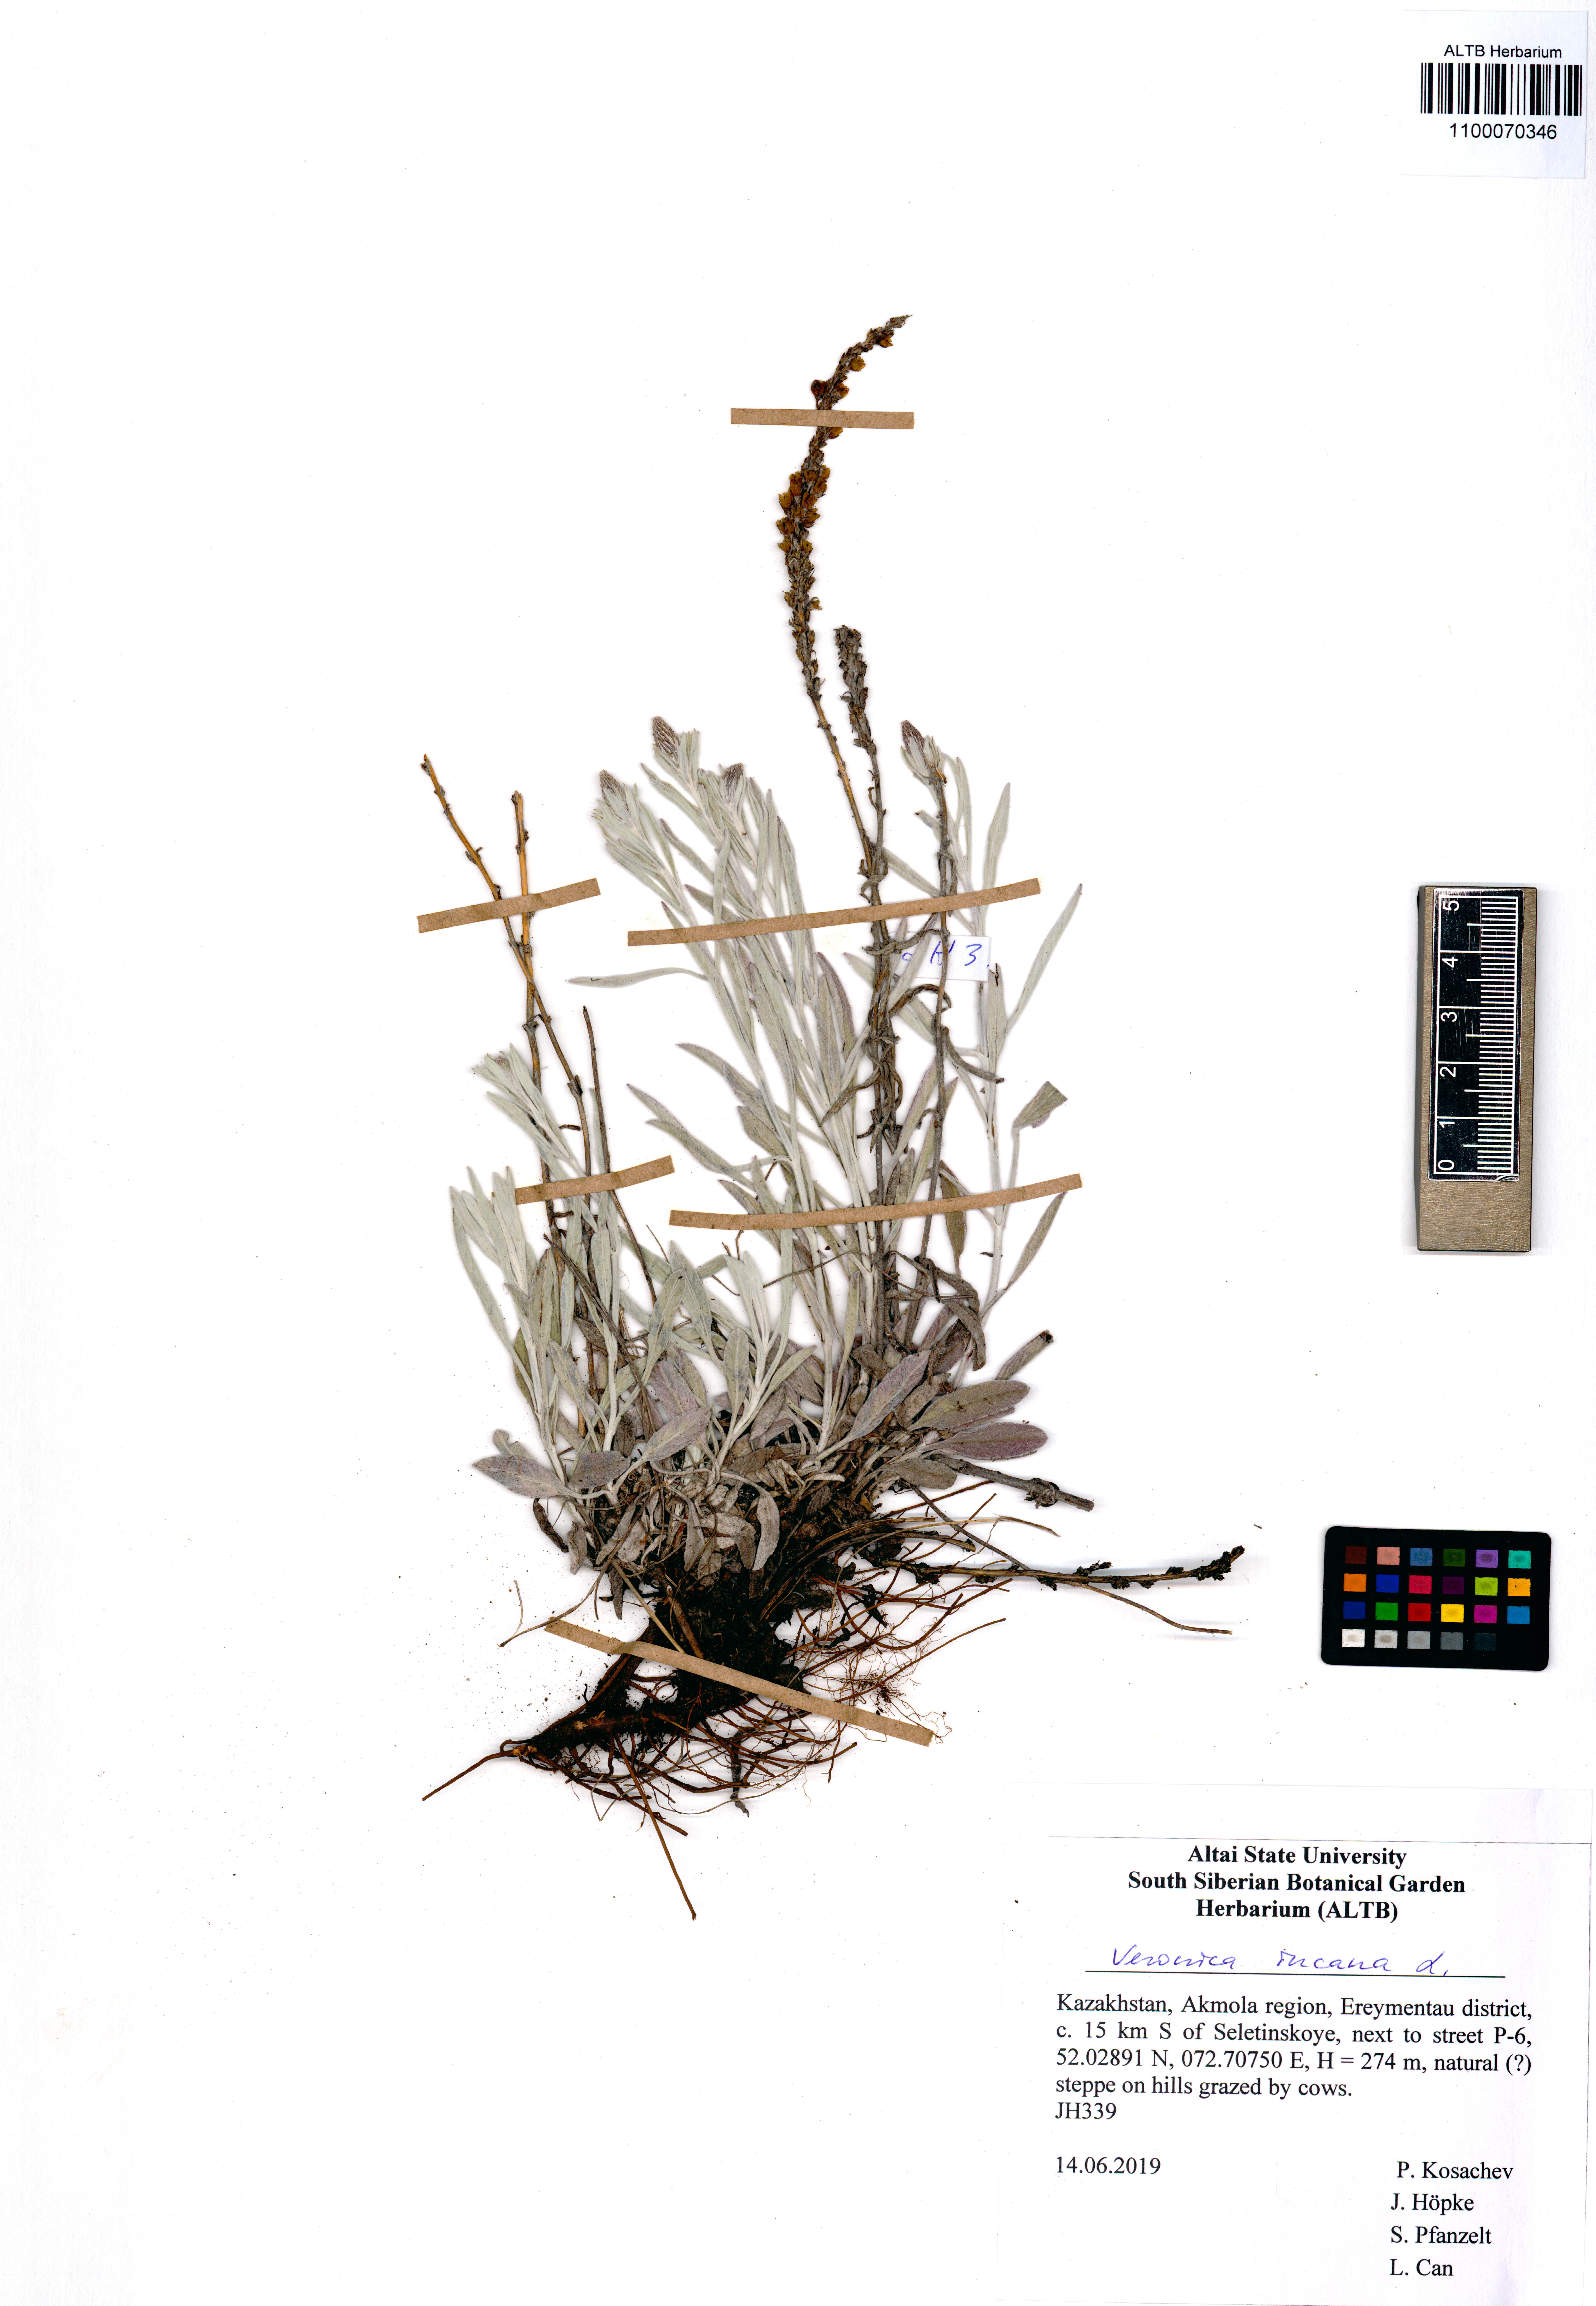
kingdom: Plantae
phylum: Tracheophyta
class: Magnoliopsida
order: Lamiales
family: Plantaginaceae
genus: Veronica
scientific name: Veronica incana
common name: Silver speedwell
